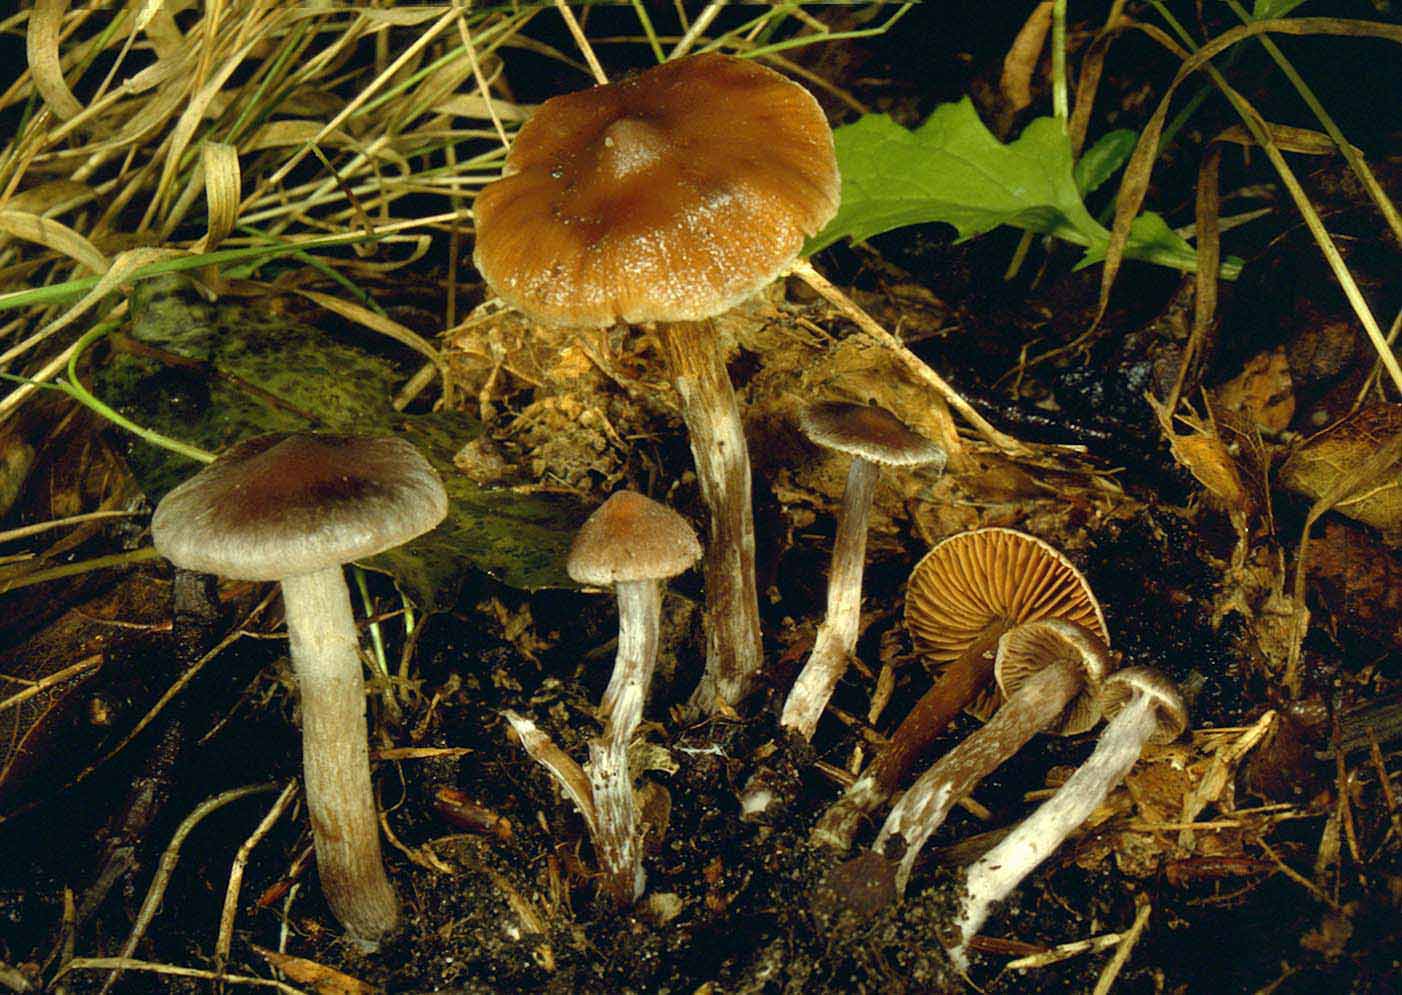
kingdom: Fungi
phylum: Basidiomycota
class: Agaricomycetes
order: Agaricales
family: Cortinariaceae
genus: Cortinarius
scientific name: Cortinarius decipiens
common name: mørkpuklet slørhat
